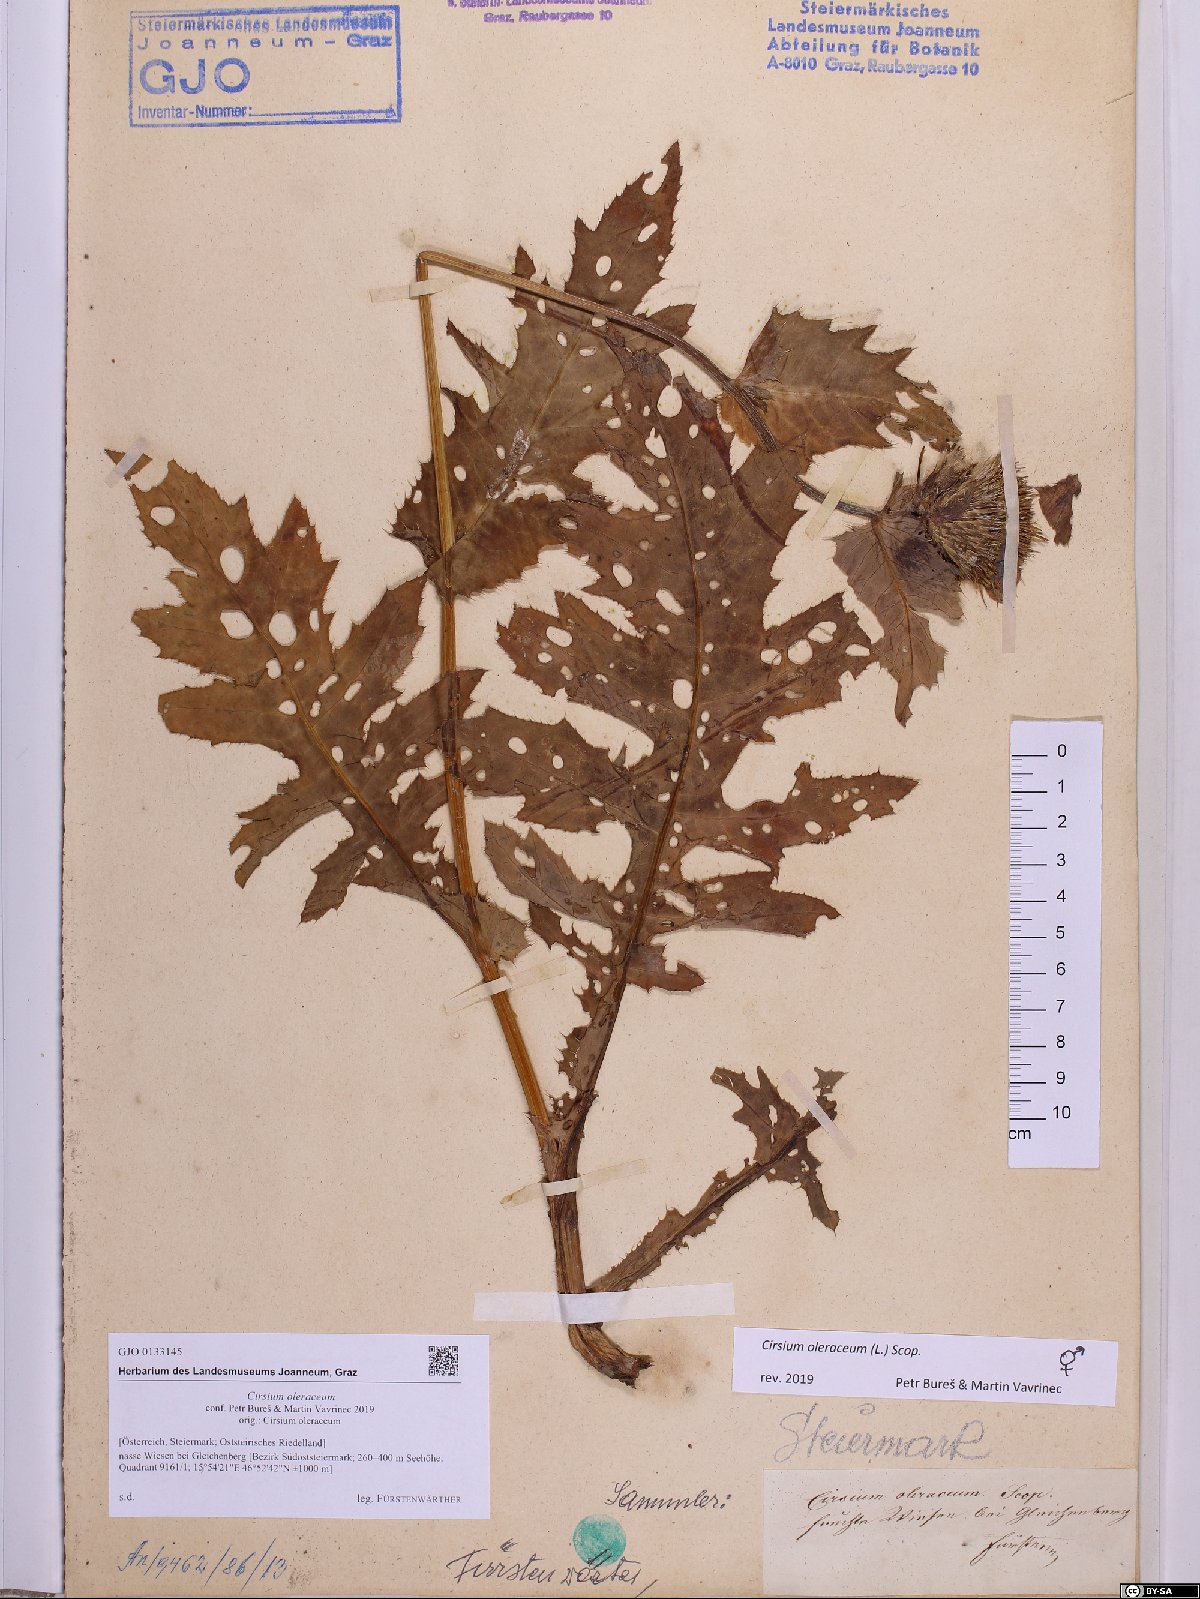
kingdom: Plantae
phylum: Tracheophyta
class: Magnoliopsida
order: Asterales
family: Asteraceae
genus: Cirsium
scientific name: Cirsium oleraceum
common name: Cabbage thistle
